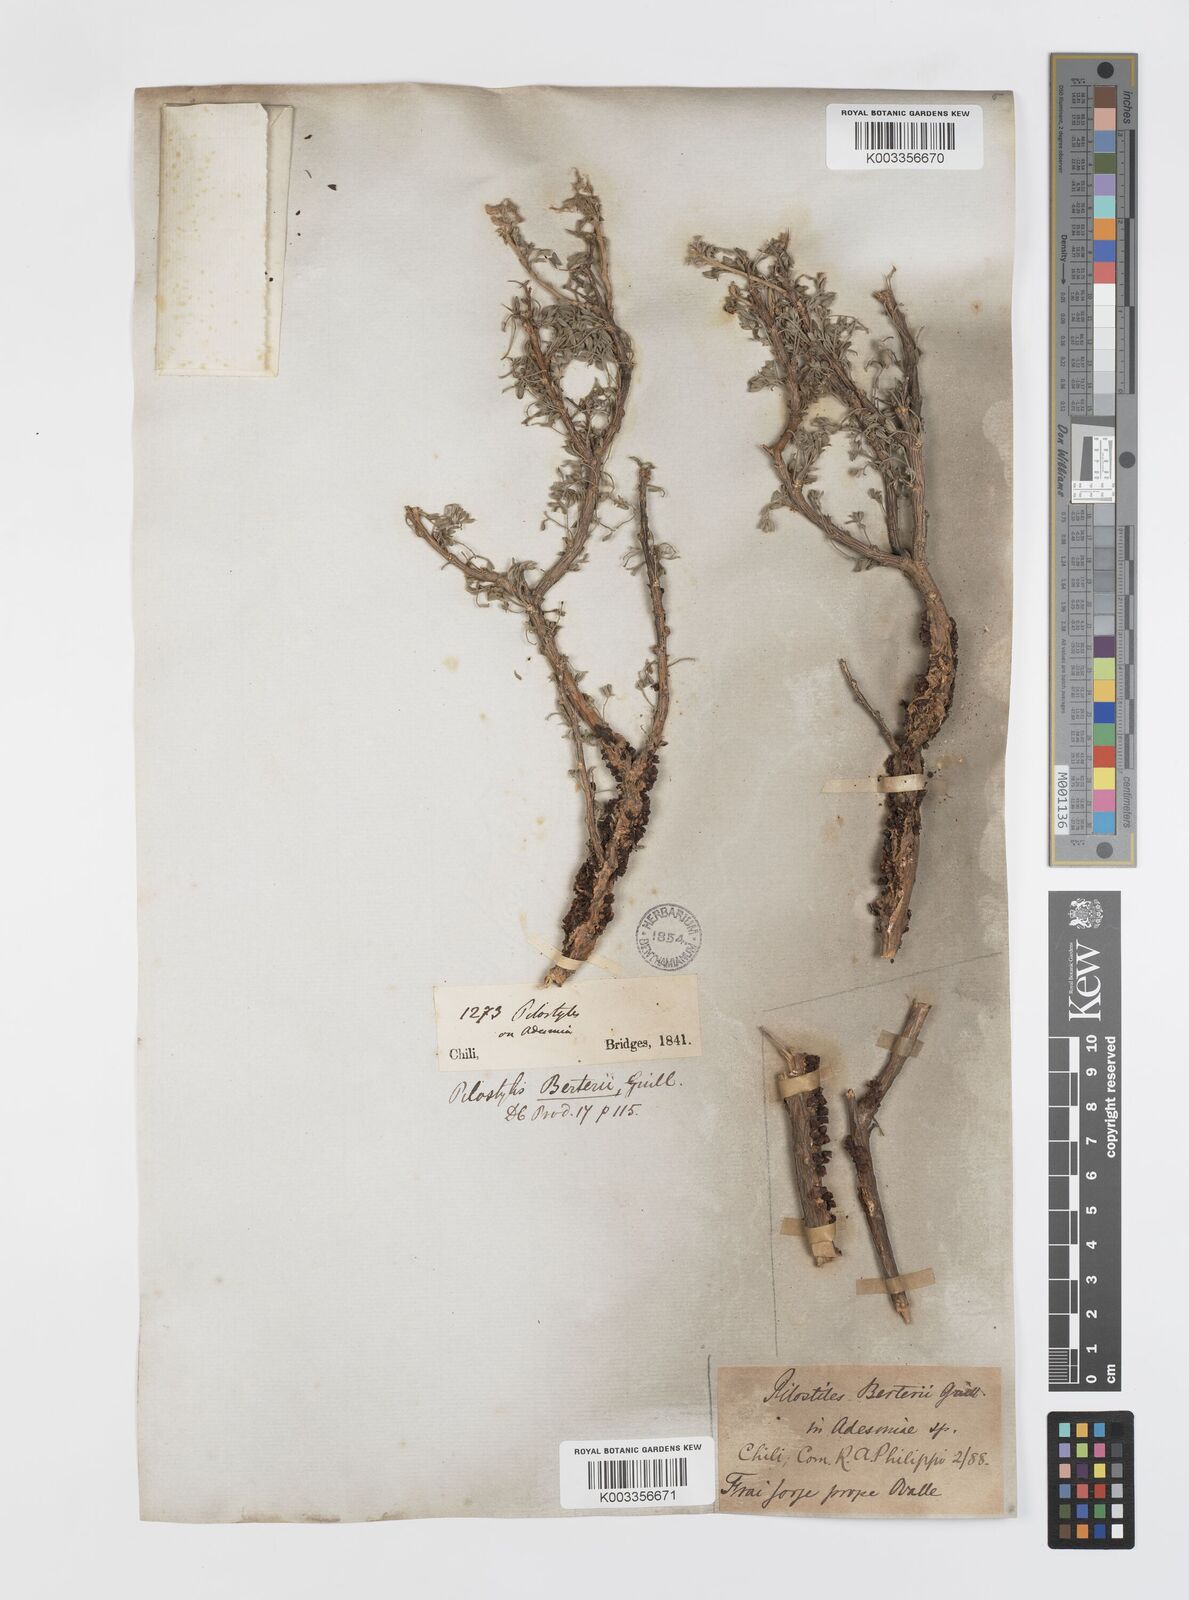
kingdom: Plantae
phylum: Tracheophyta
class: Magnoliopsida
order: Cucurbitales
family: Apodanthaceae
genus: Pilostyles
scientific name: Pilostyles berteroi
